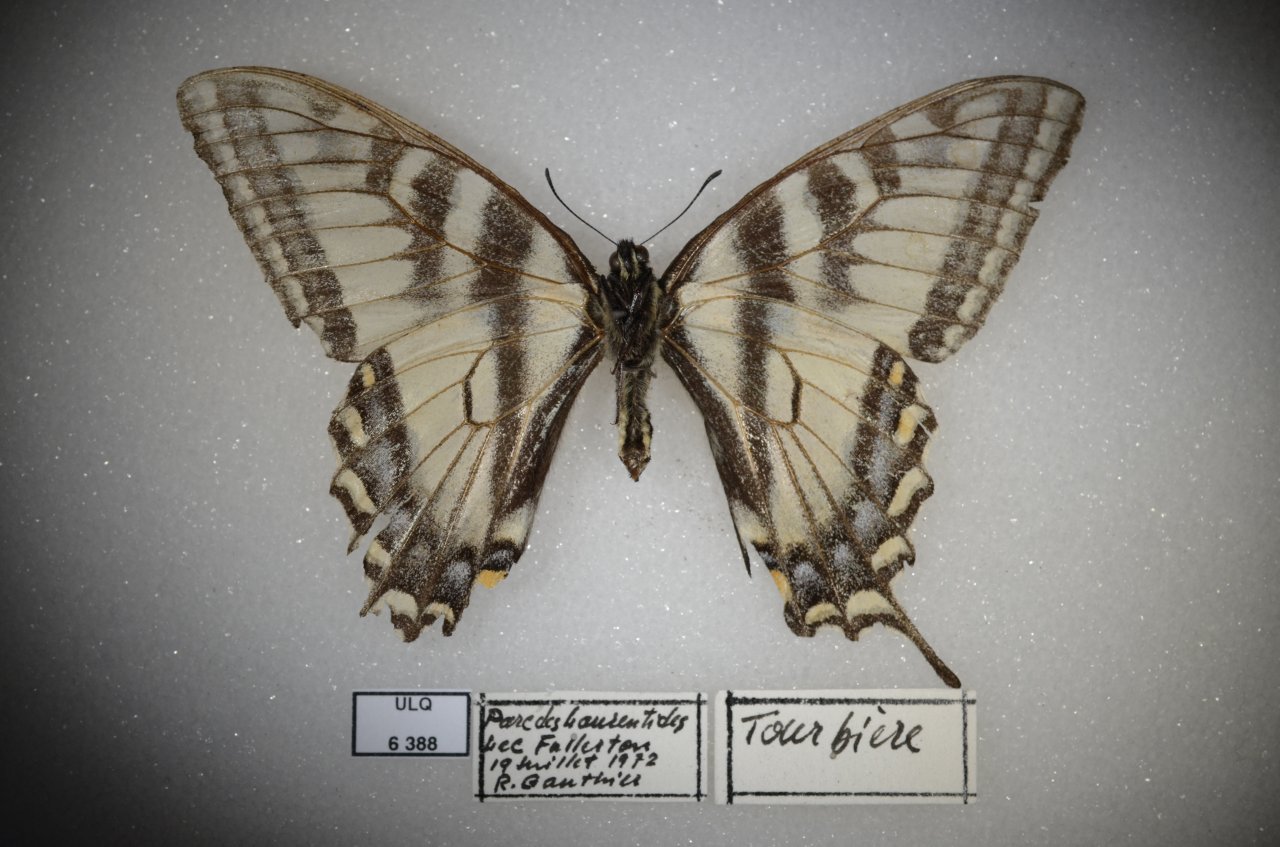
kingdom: Animalia
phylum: Arthropoda
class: Insecta
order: Lepidoptera
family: Papilionidae
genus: Pterourus
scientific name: Pterourus canadensis
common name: Canadian Tiger Swallowtail
